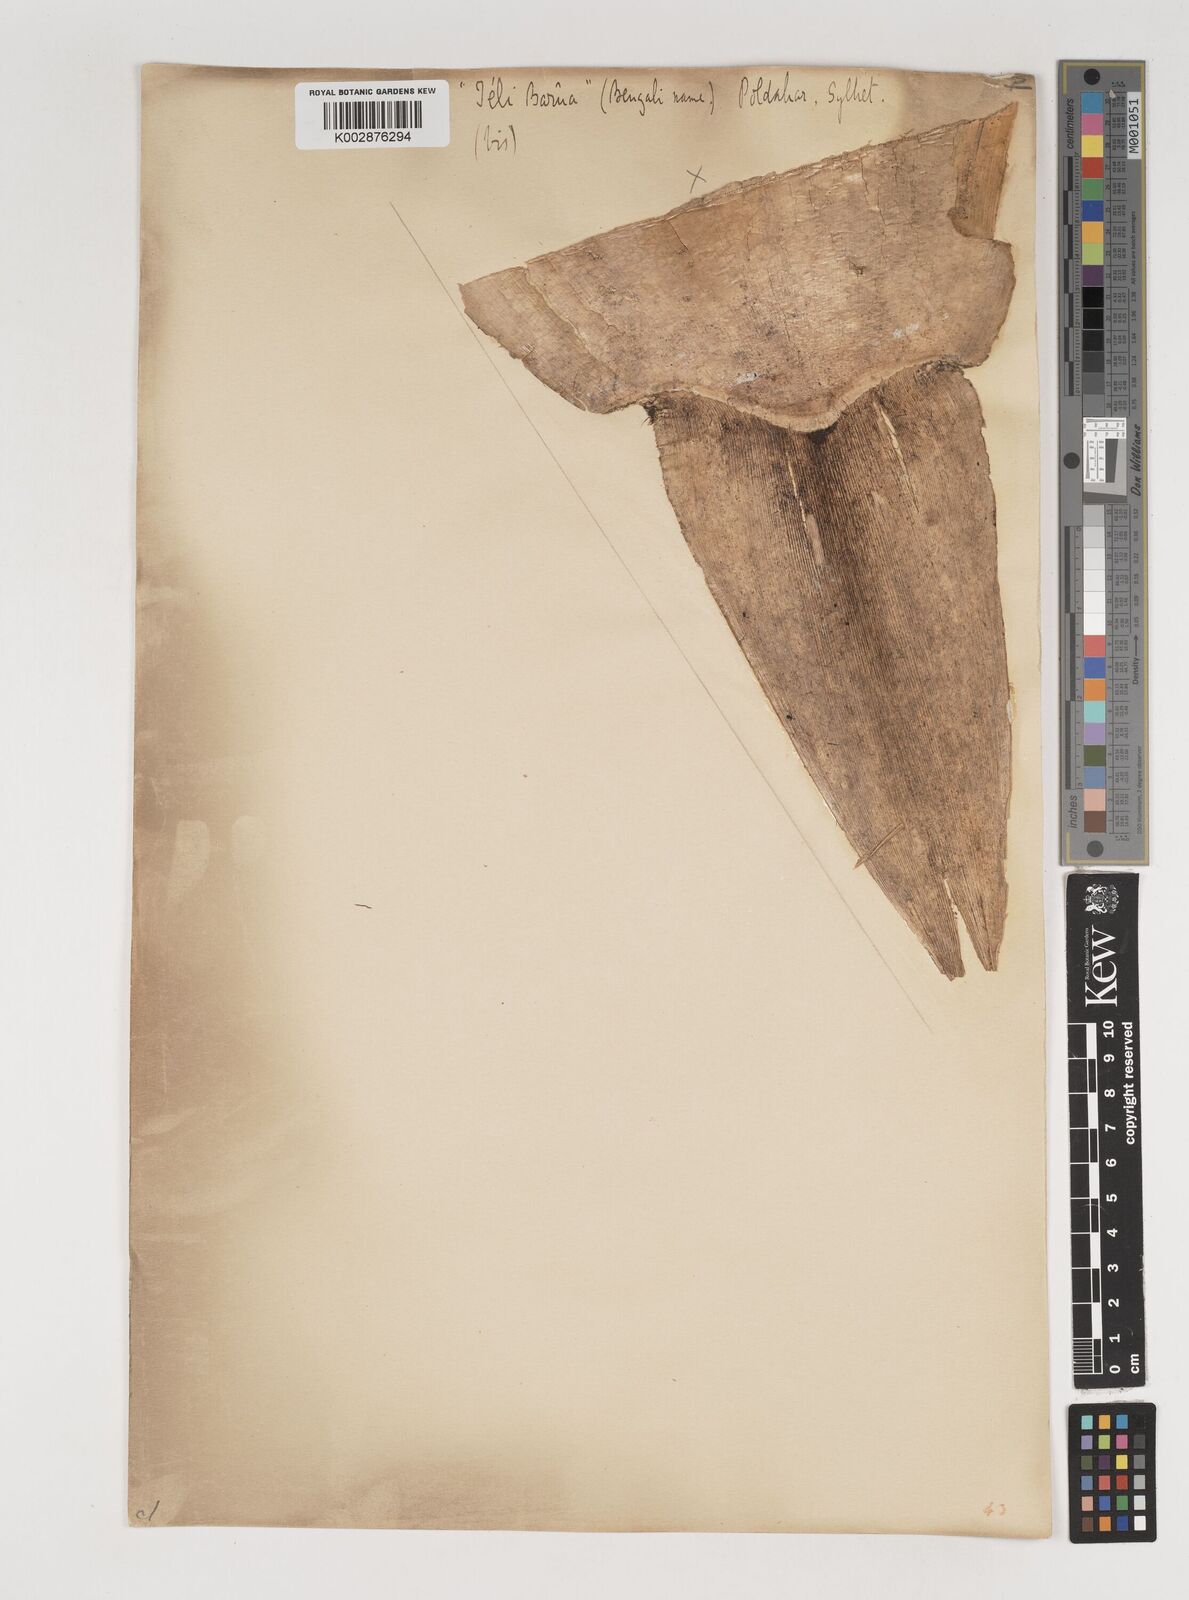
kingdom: Plantae
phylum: Tracheophyta
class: Liliopsida
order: Poales
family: Poaceae
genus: Bambusa
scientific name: Bambusa balcooa
